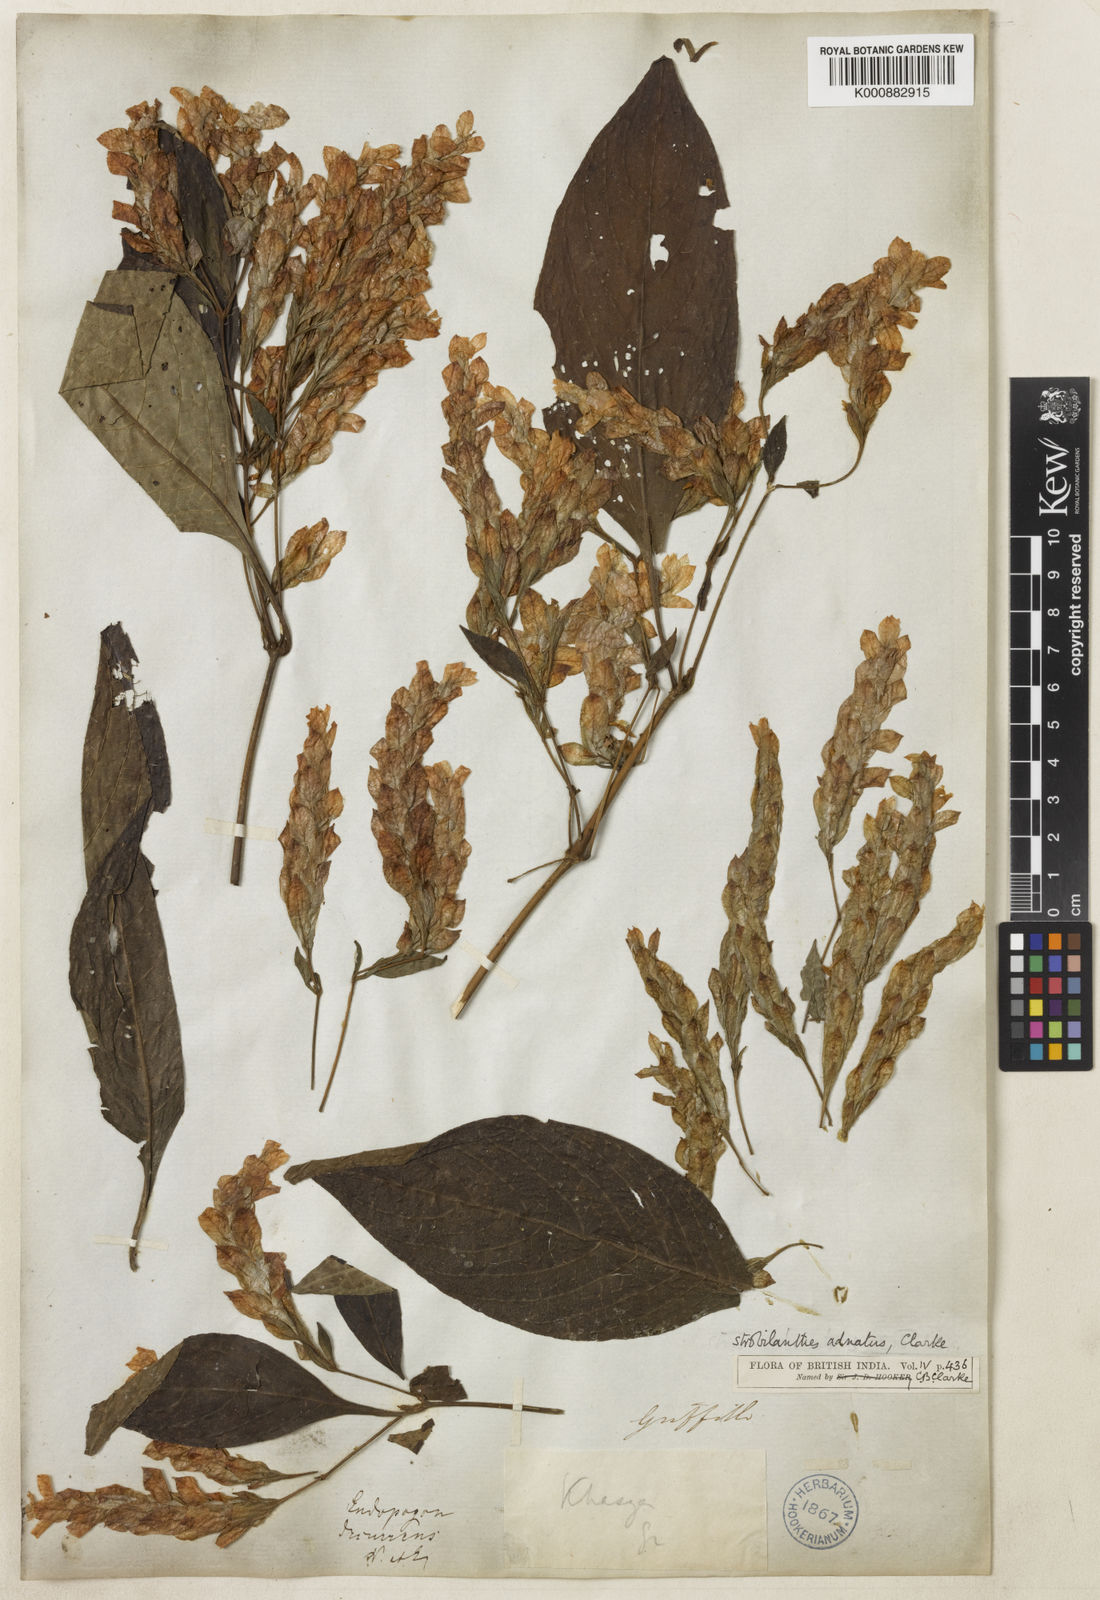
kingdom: Plantae
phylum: Tracheophyta
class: Magnoliopsida
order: Lamiales
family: Acanthaceae
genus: Strobilanthes
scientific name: Strobilanthes adnata
